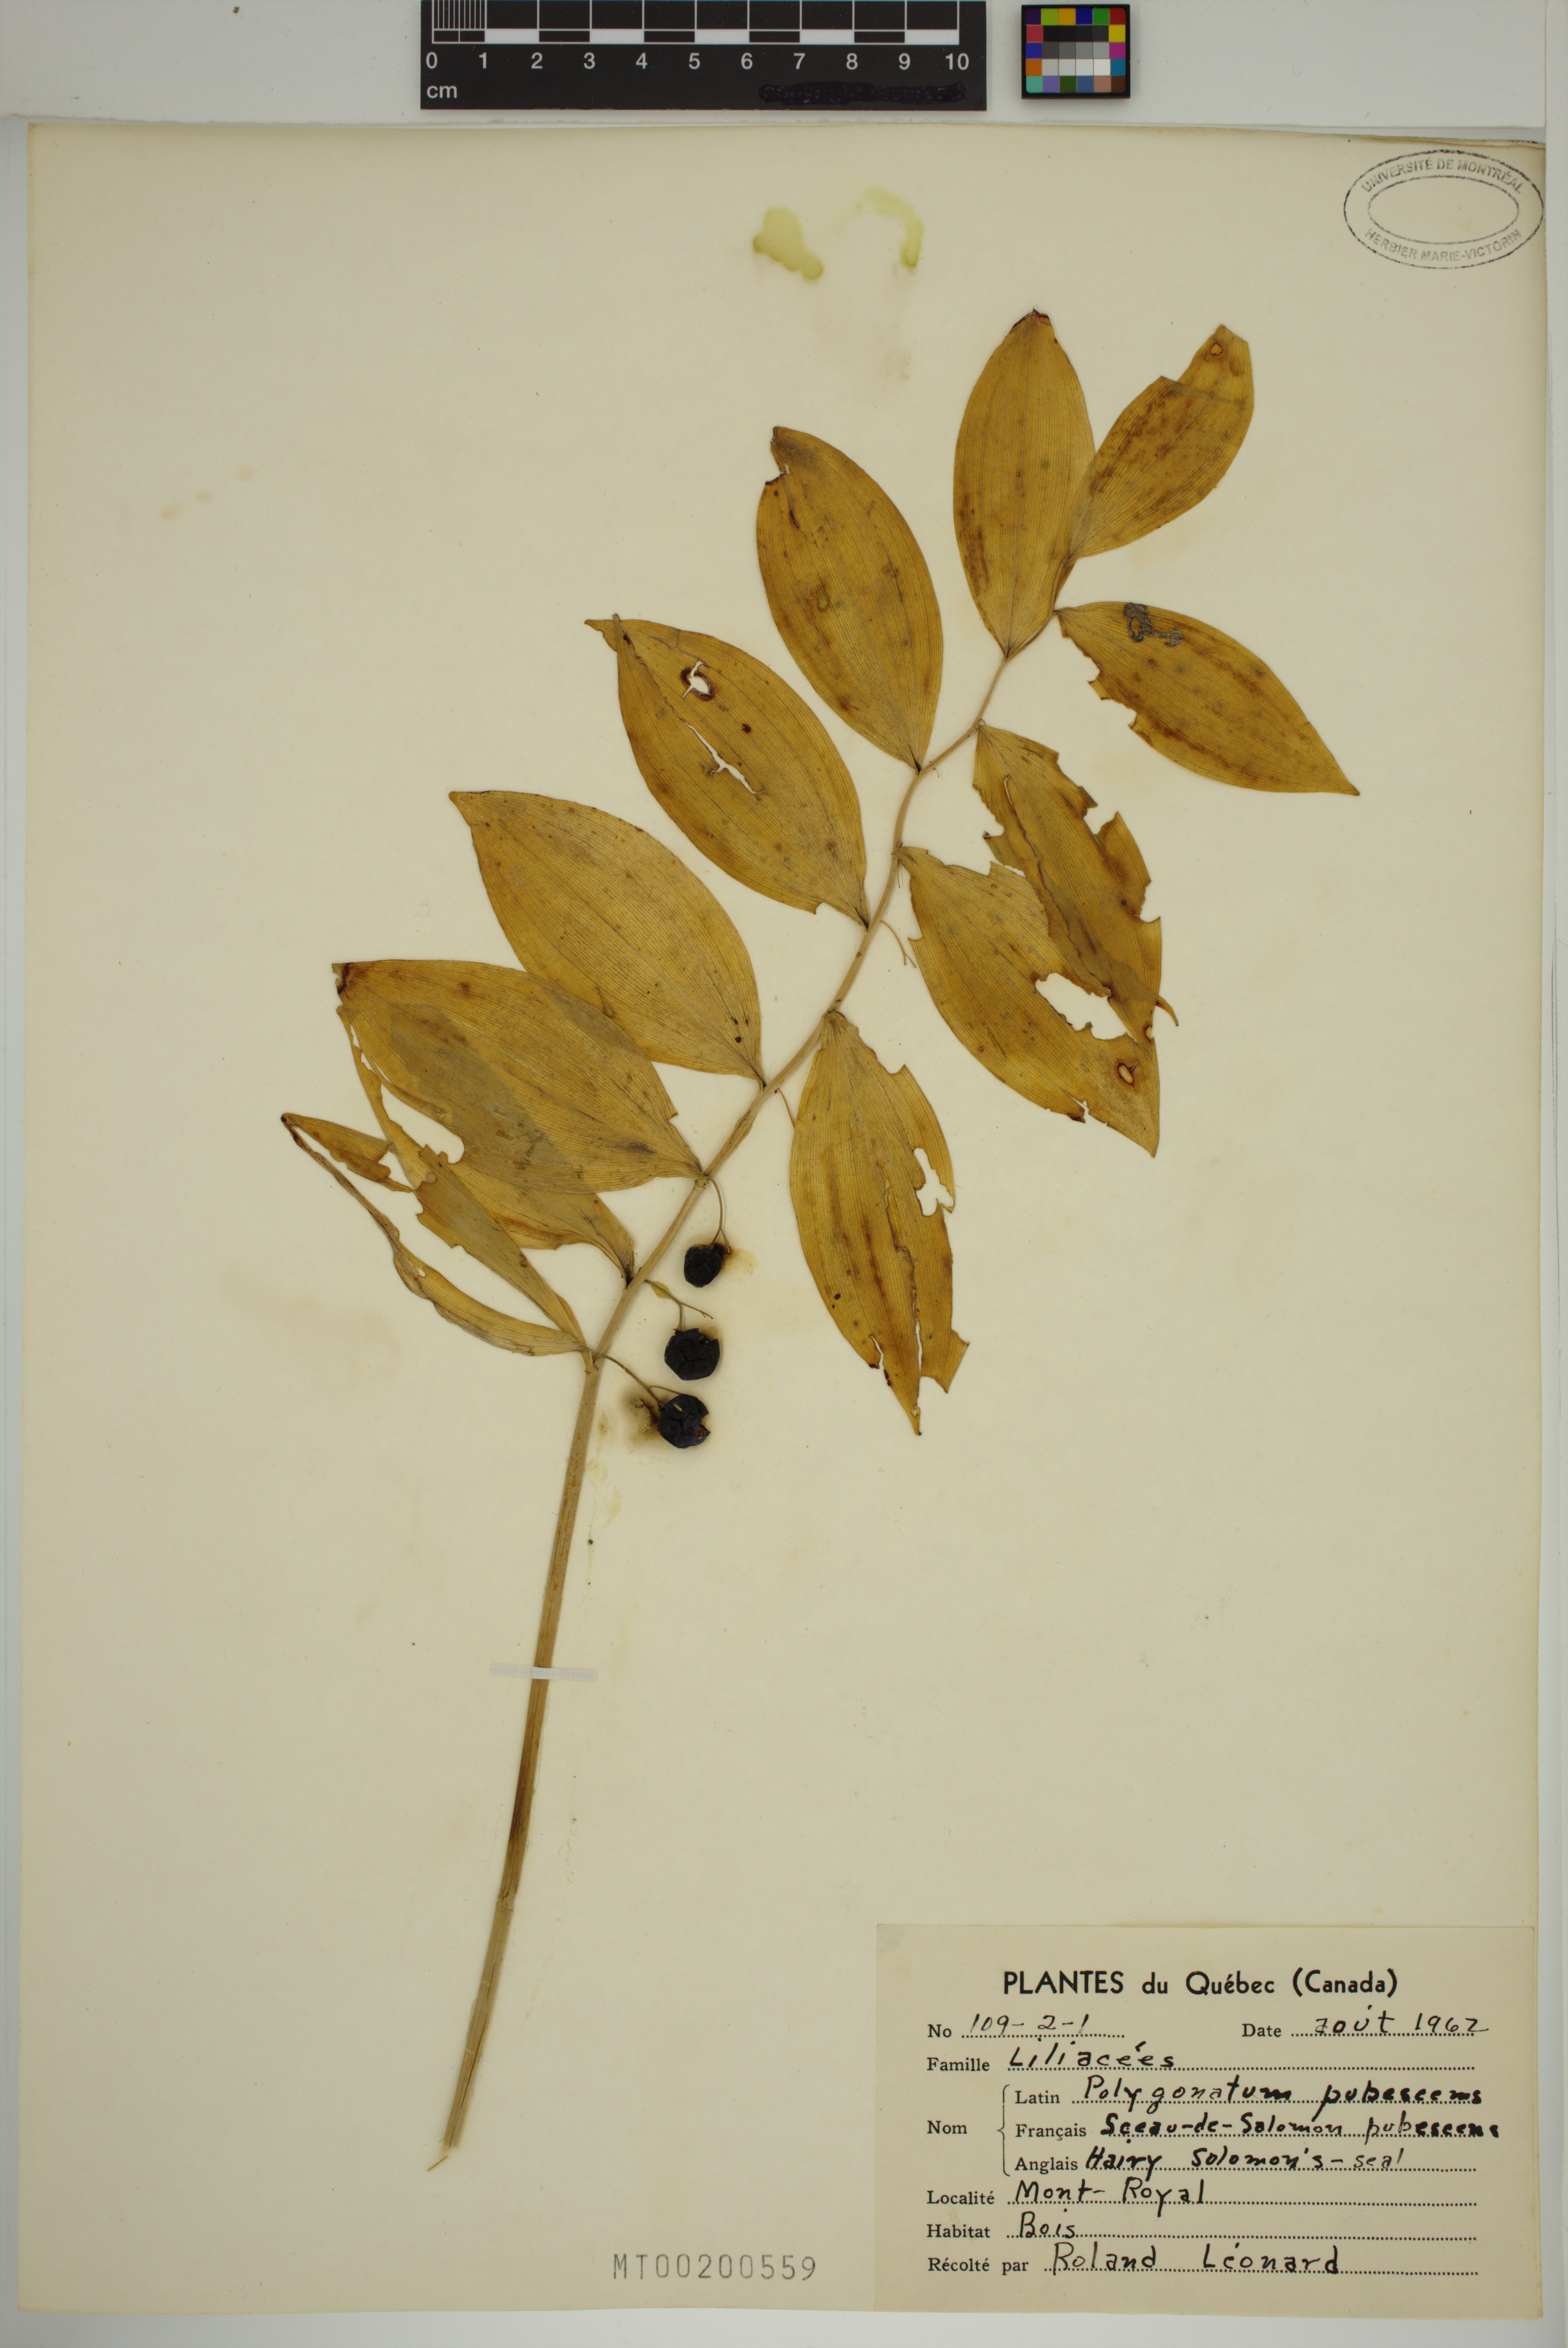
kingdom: Plantae
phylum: Tracheophyta
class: Liliopsida
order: Asparagales
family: Asparagaceae
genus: Polygonatum
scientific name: Polygonatum pubescens
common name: Downy solomon's seal
